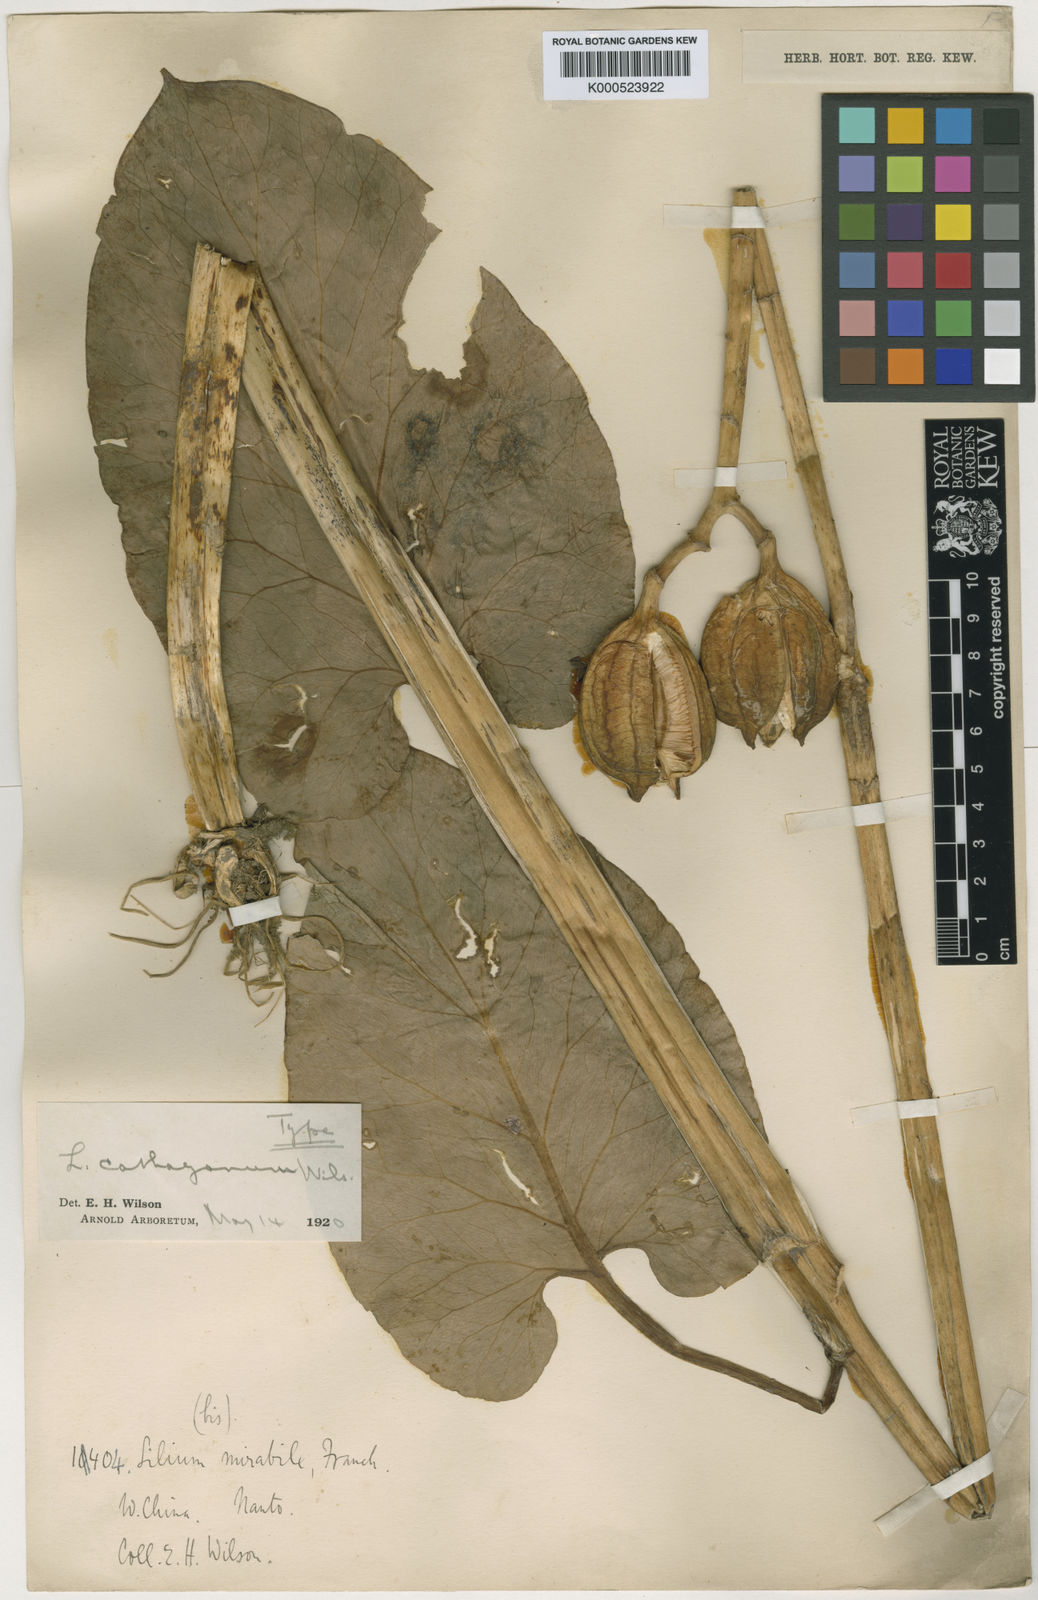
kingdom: Plantae
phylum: Tracheophyta
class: Liliopsida
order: Liliales
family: Liliaceae
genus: Cardiocrinum
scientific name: Cardiocrinum cathayanum
